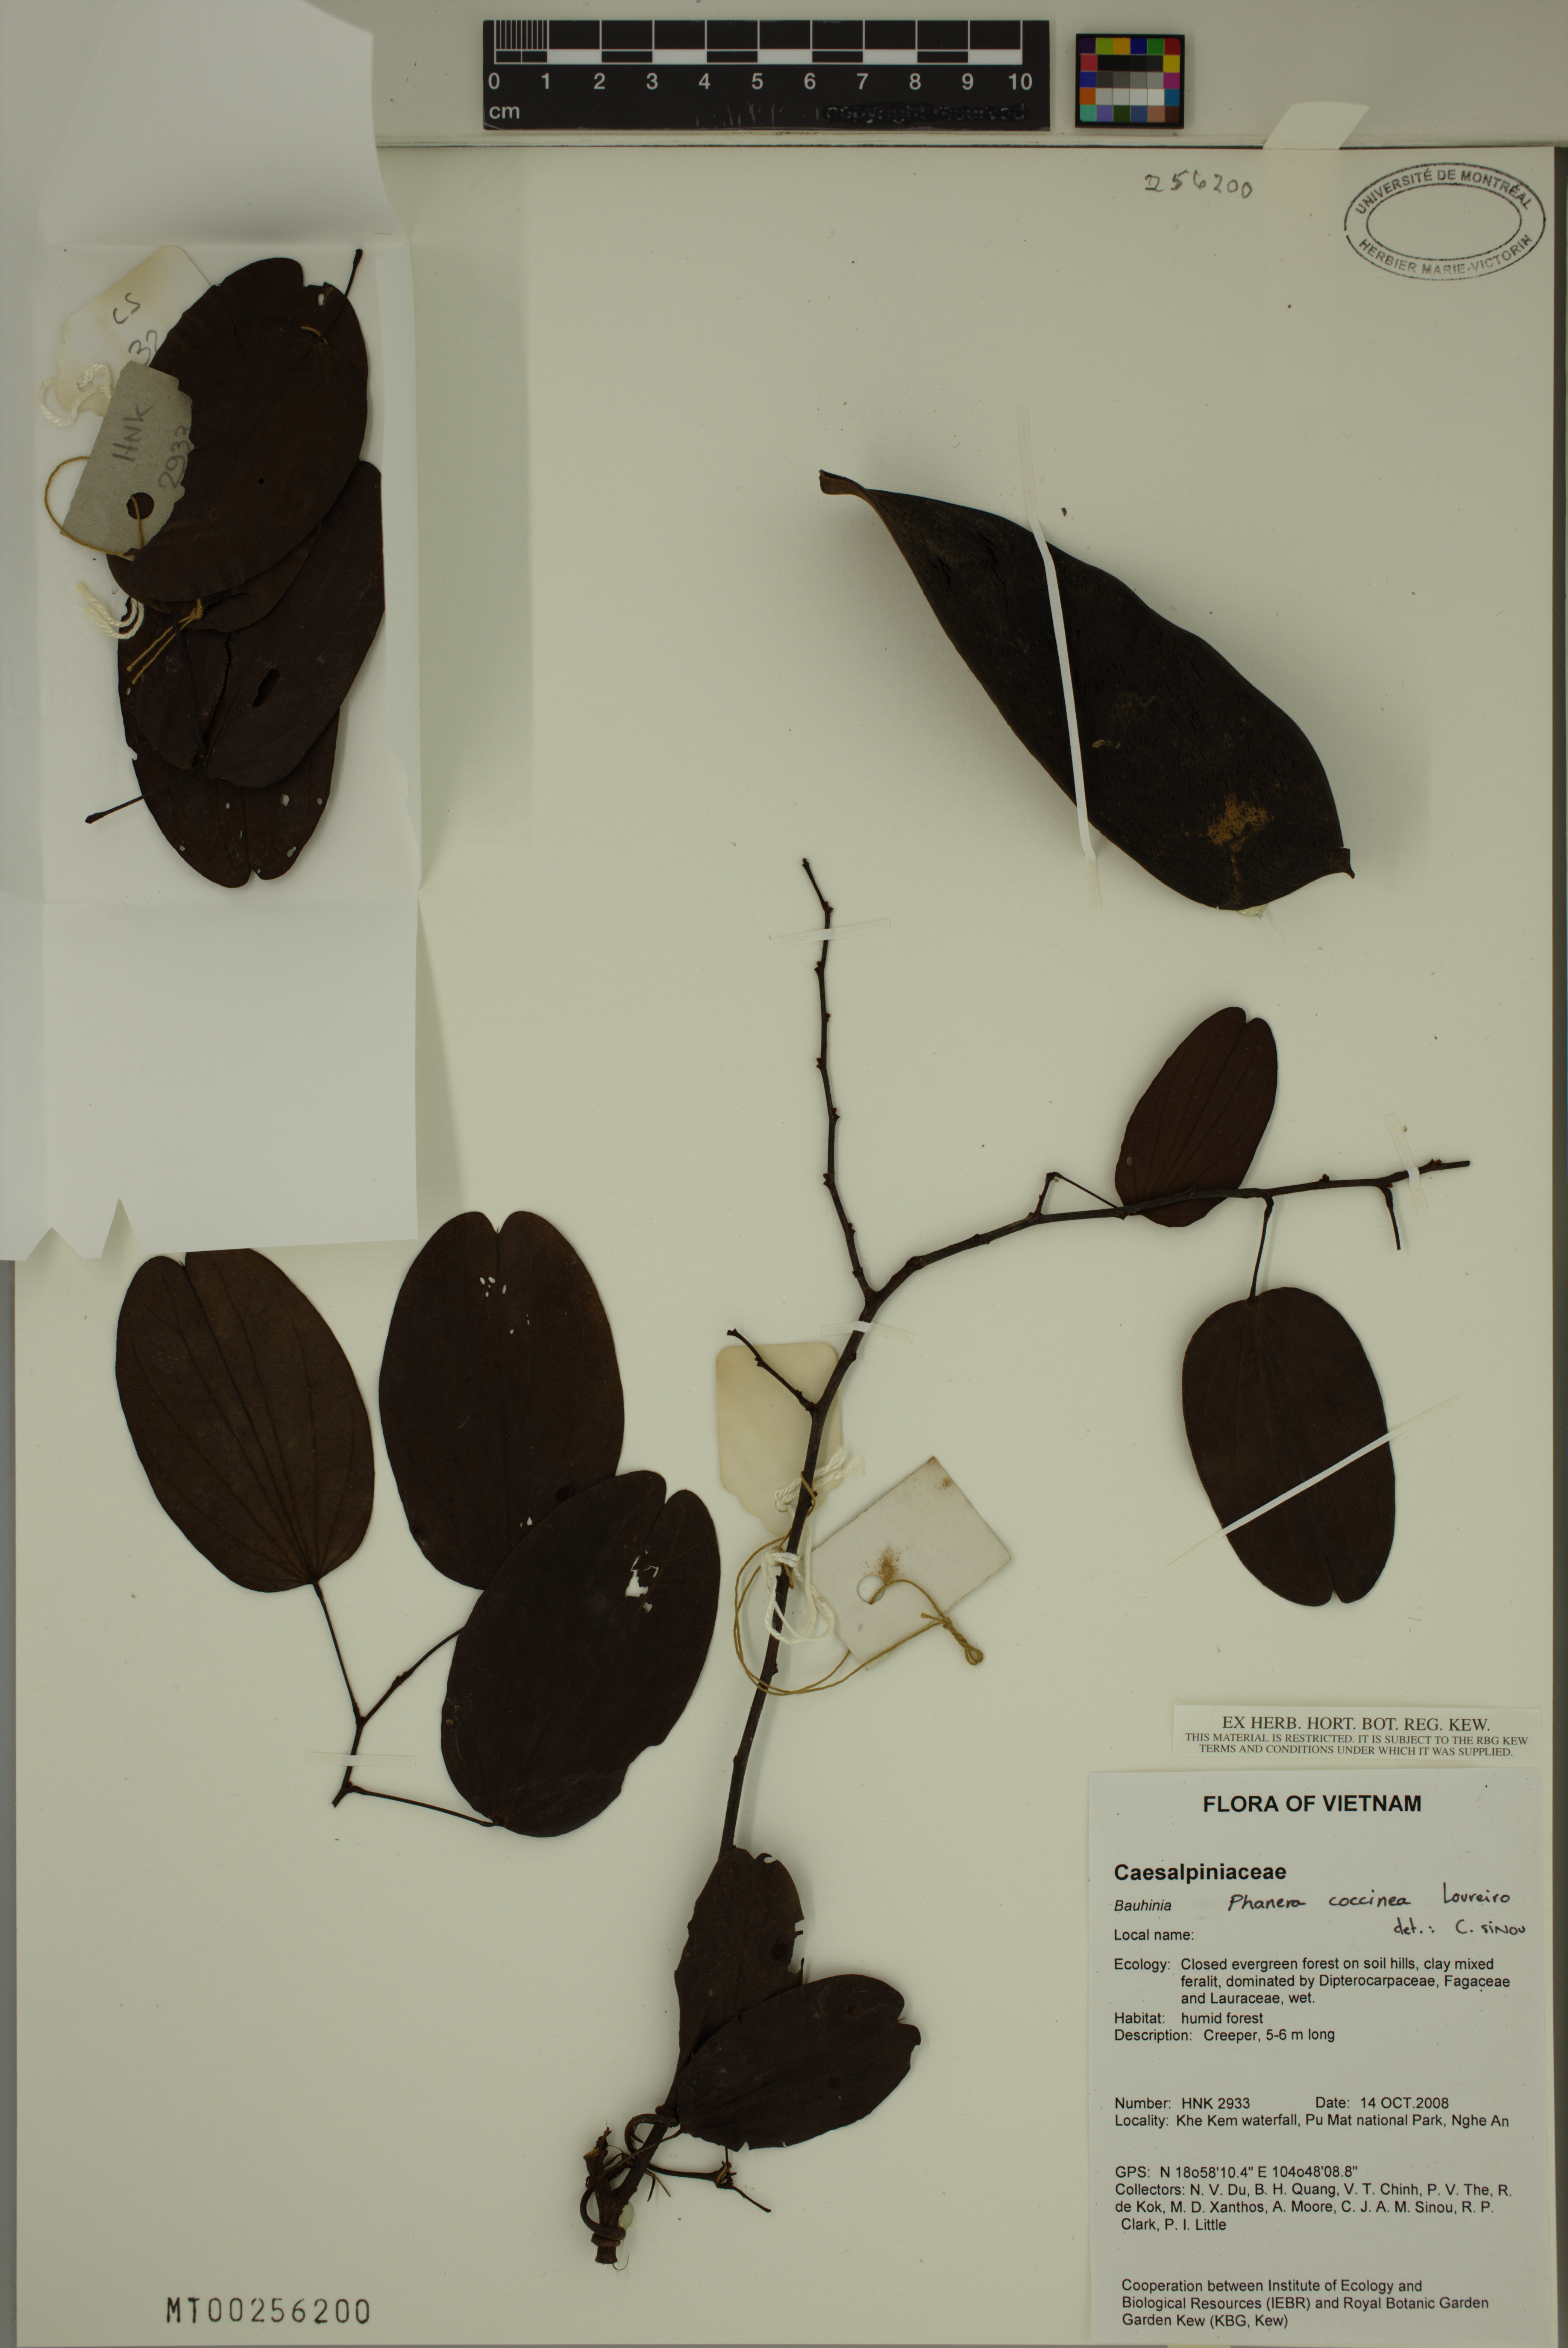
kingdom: Plantae
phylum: Tracheophyta
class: Magnoliopsida
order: Fabales
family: Fabaceae
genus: Phanera
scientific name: Phanera coccinea
